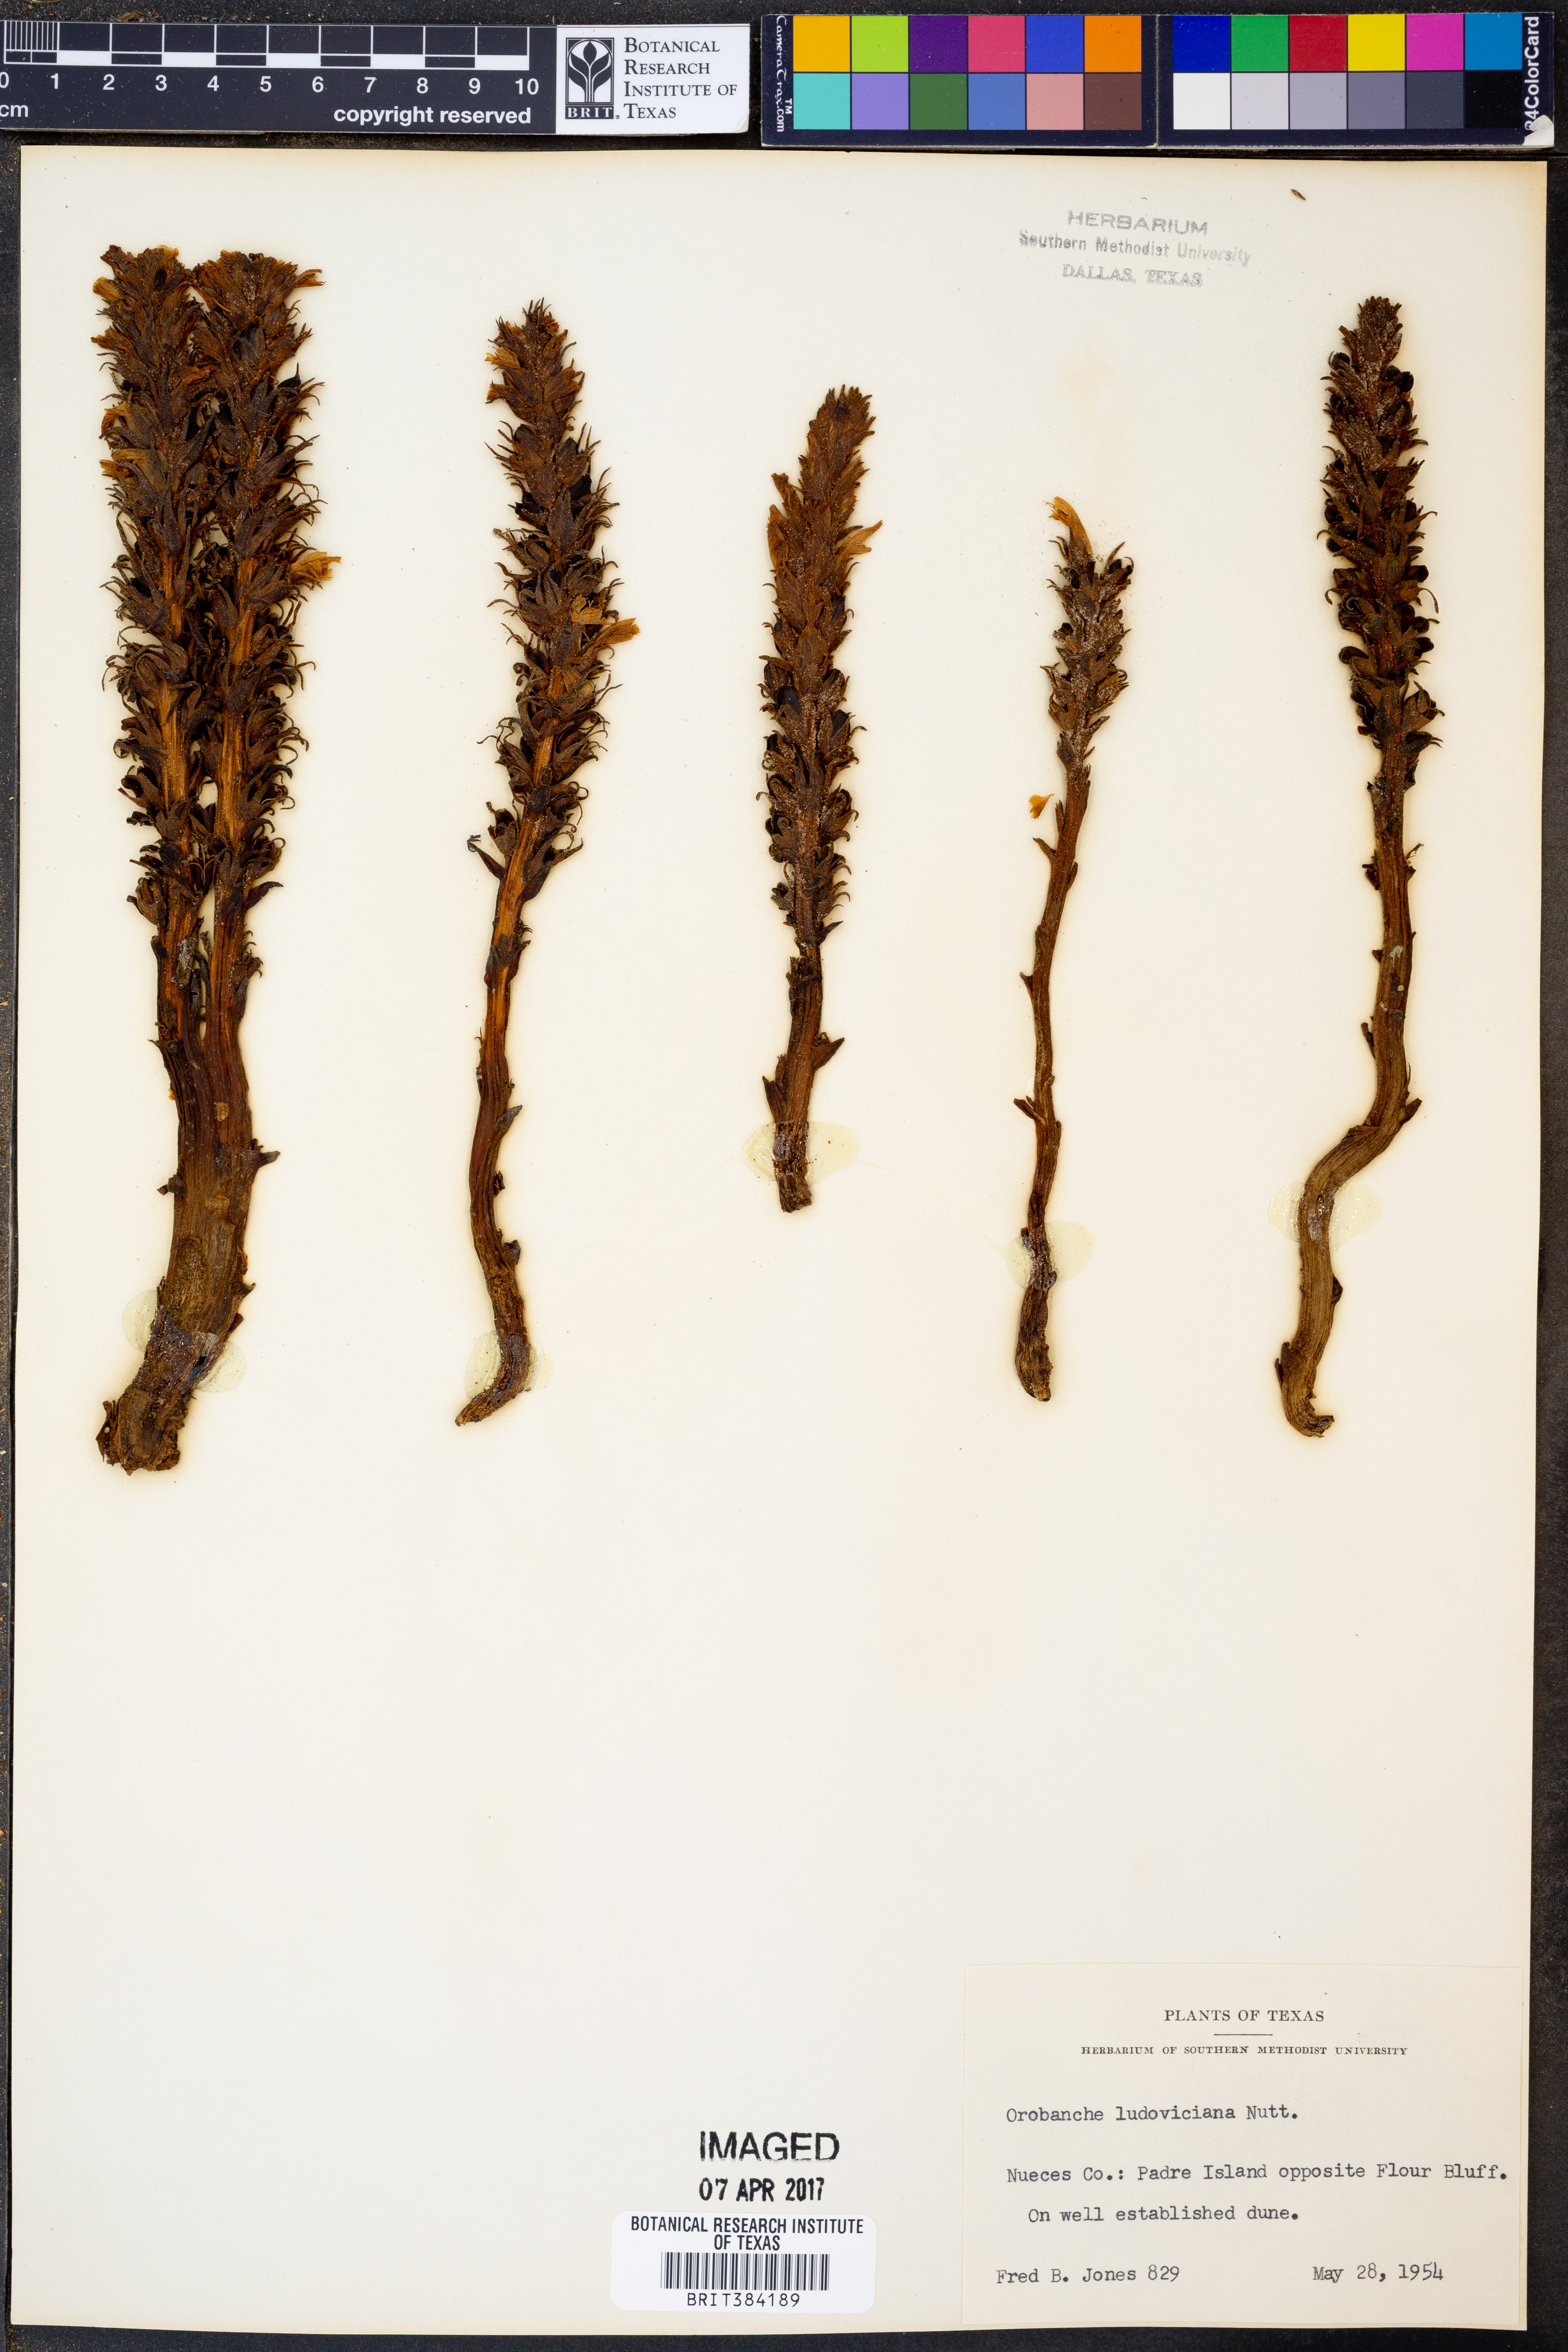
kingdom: Plantae
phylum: Tracheophyta
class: Magnoliopsida
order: Lamiales
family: Orobanchaceae
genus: Aphyllon
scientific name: Aphyllon ludovicianum
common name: Louisiana broomrape
